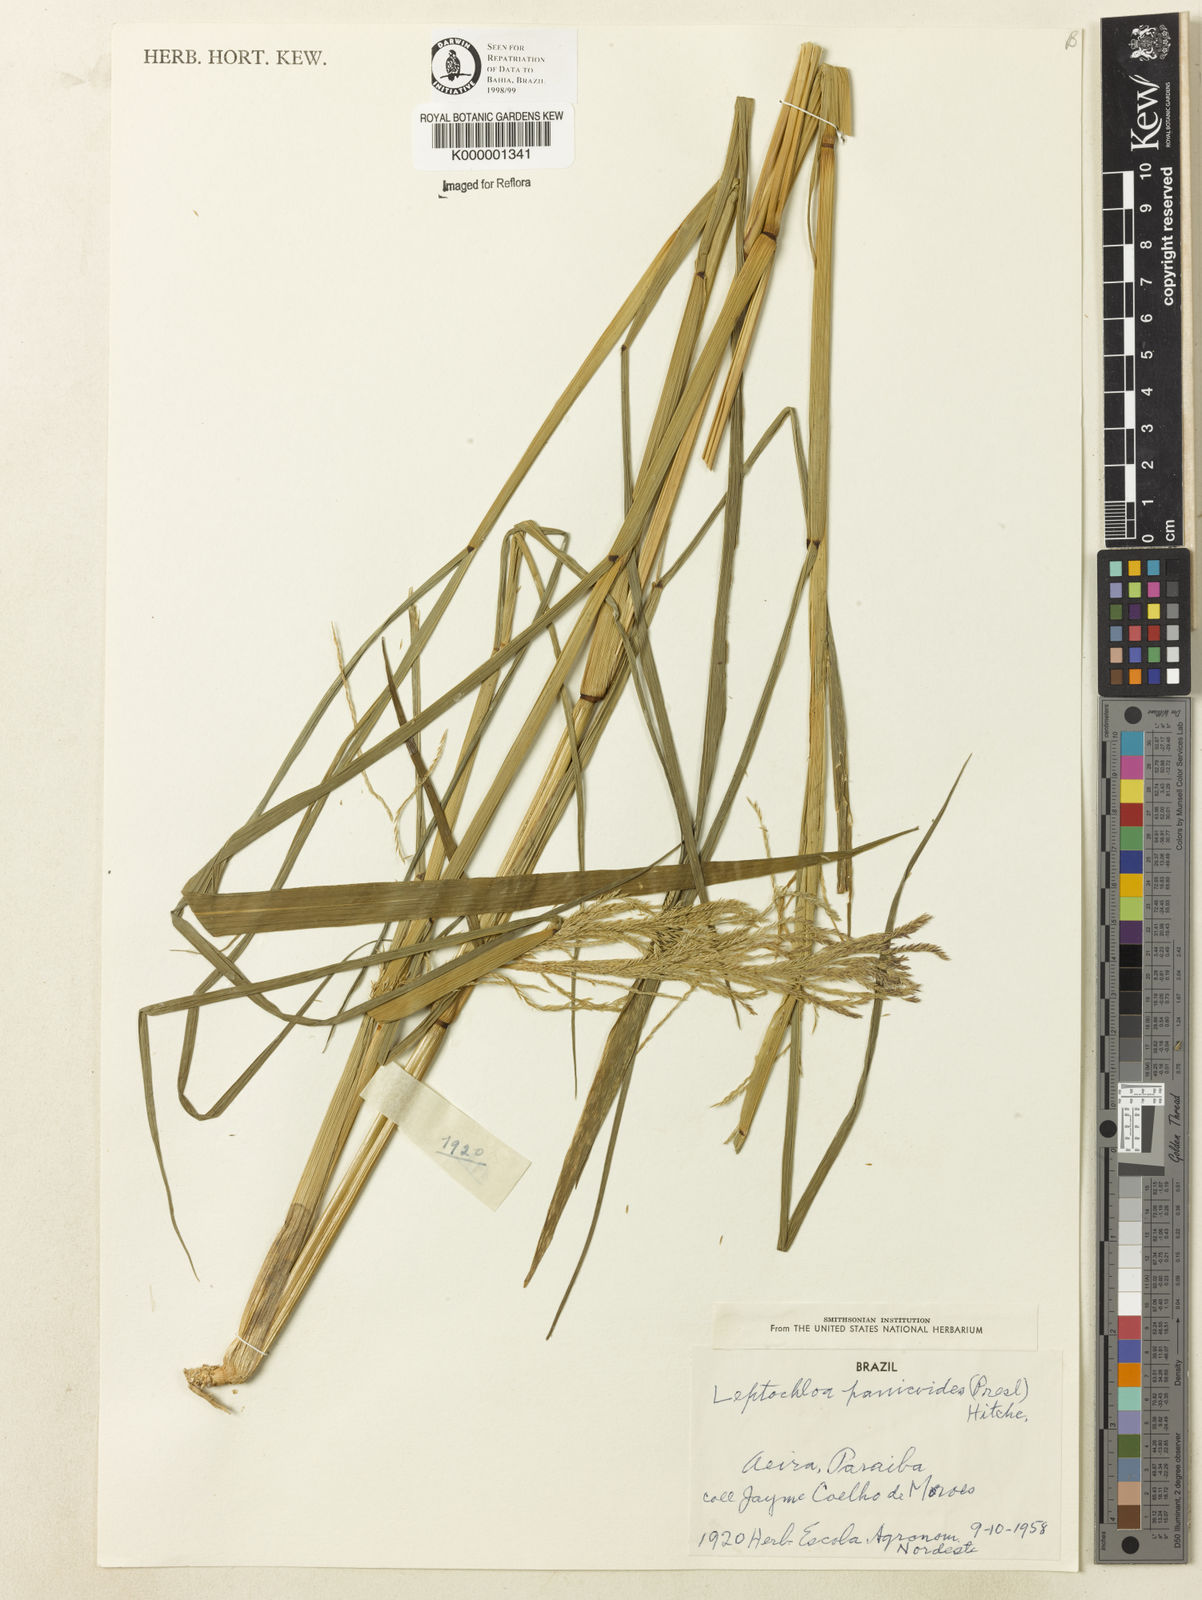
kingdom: Plantae
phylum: Tracheophyta
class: Liliopsida
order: Poales
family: Poaceae
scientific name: Poaceae
